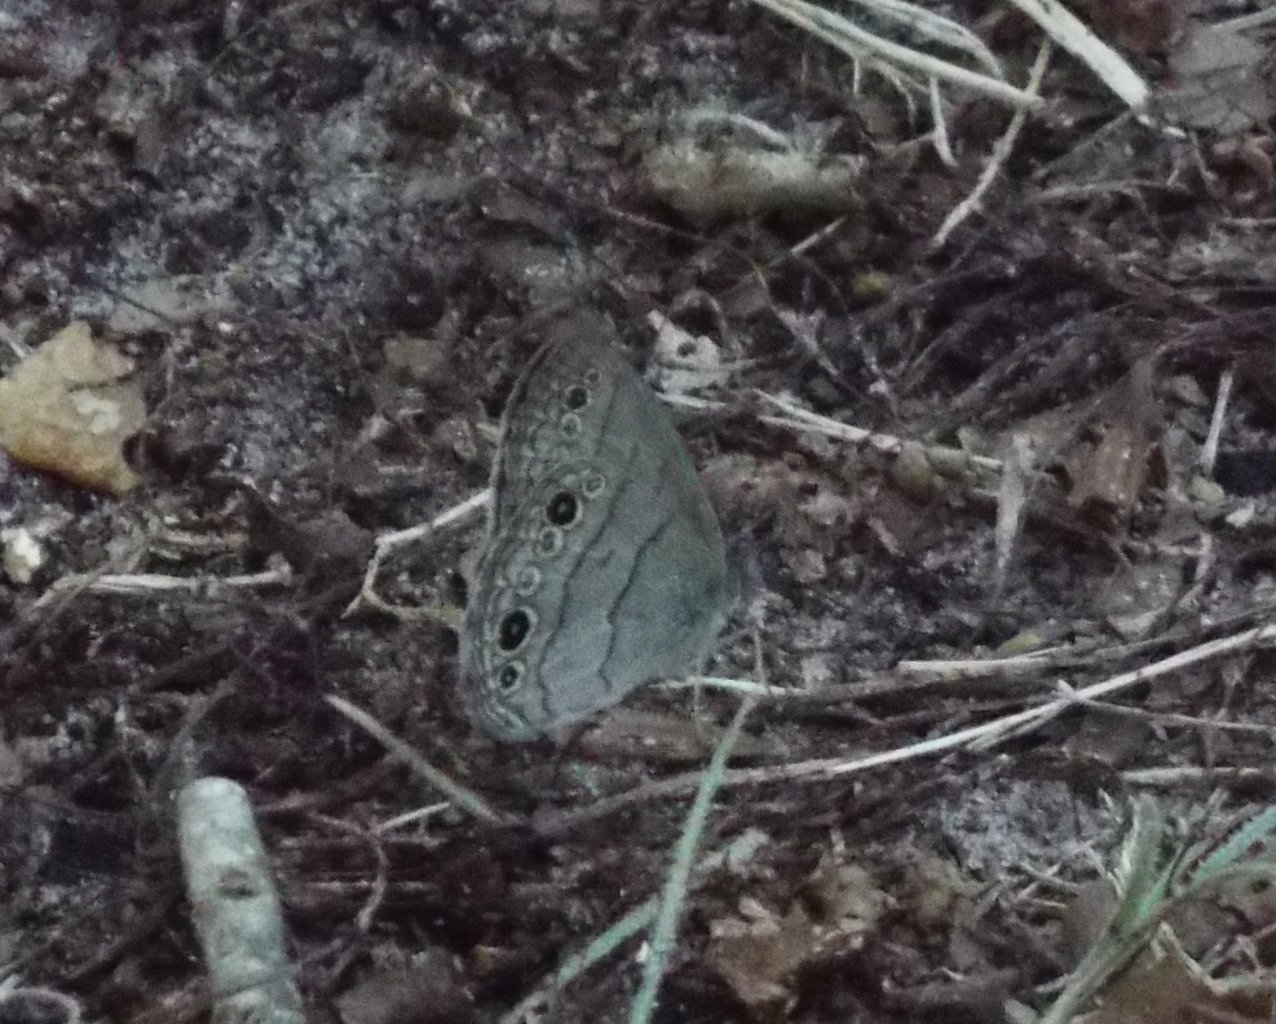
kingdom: Animalia
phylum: Arthropoda
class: Insecta
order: Lepidoptera
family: Nymphalidae
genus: Hermeuptychia
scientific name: Hermeuptychia hermes
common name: Carolina Satyr
